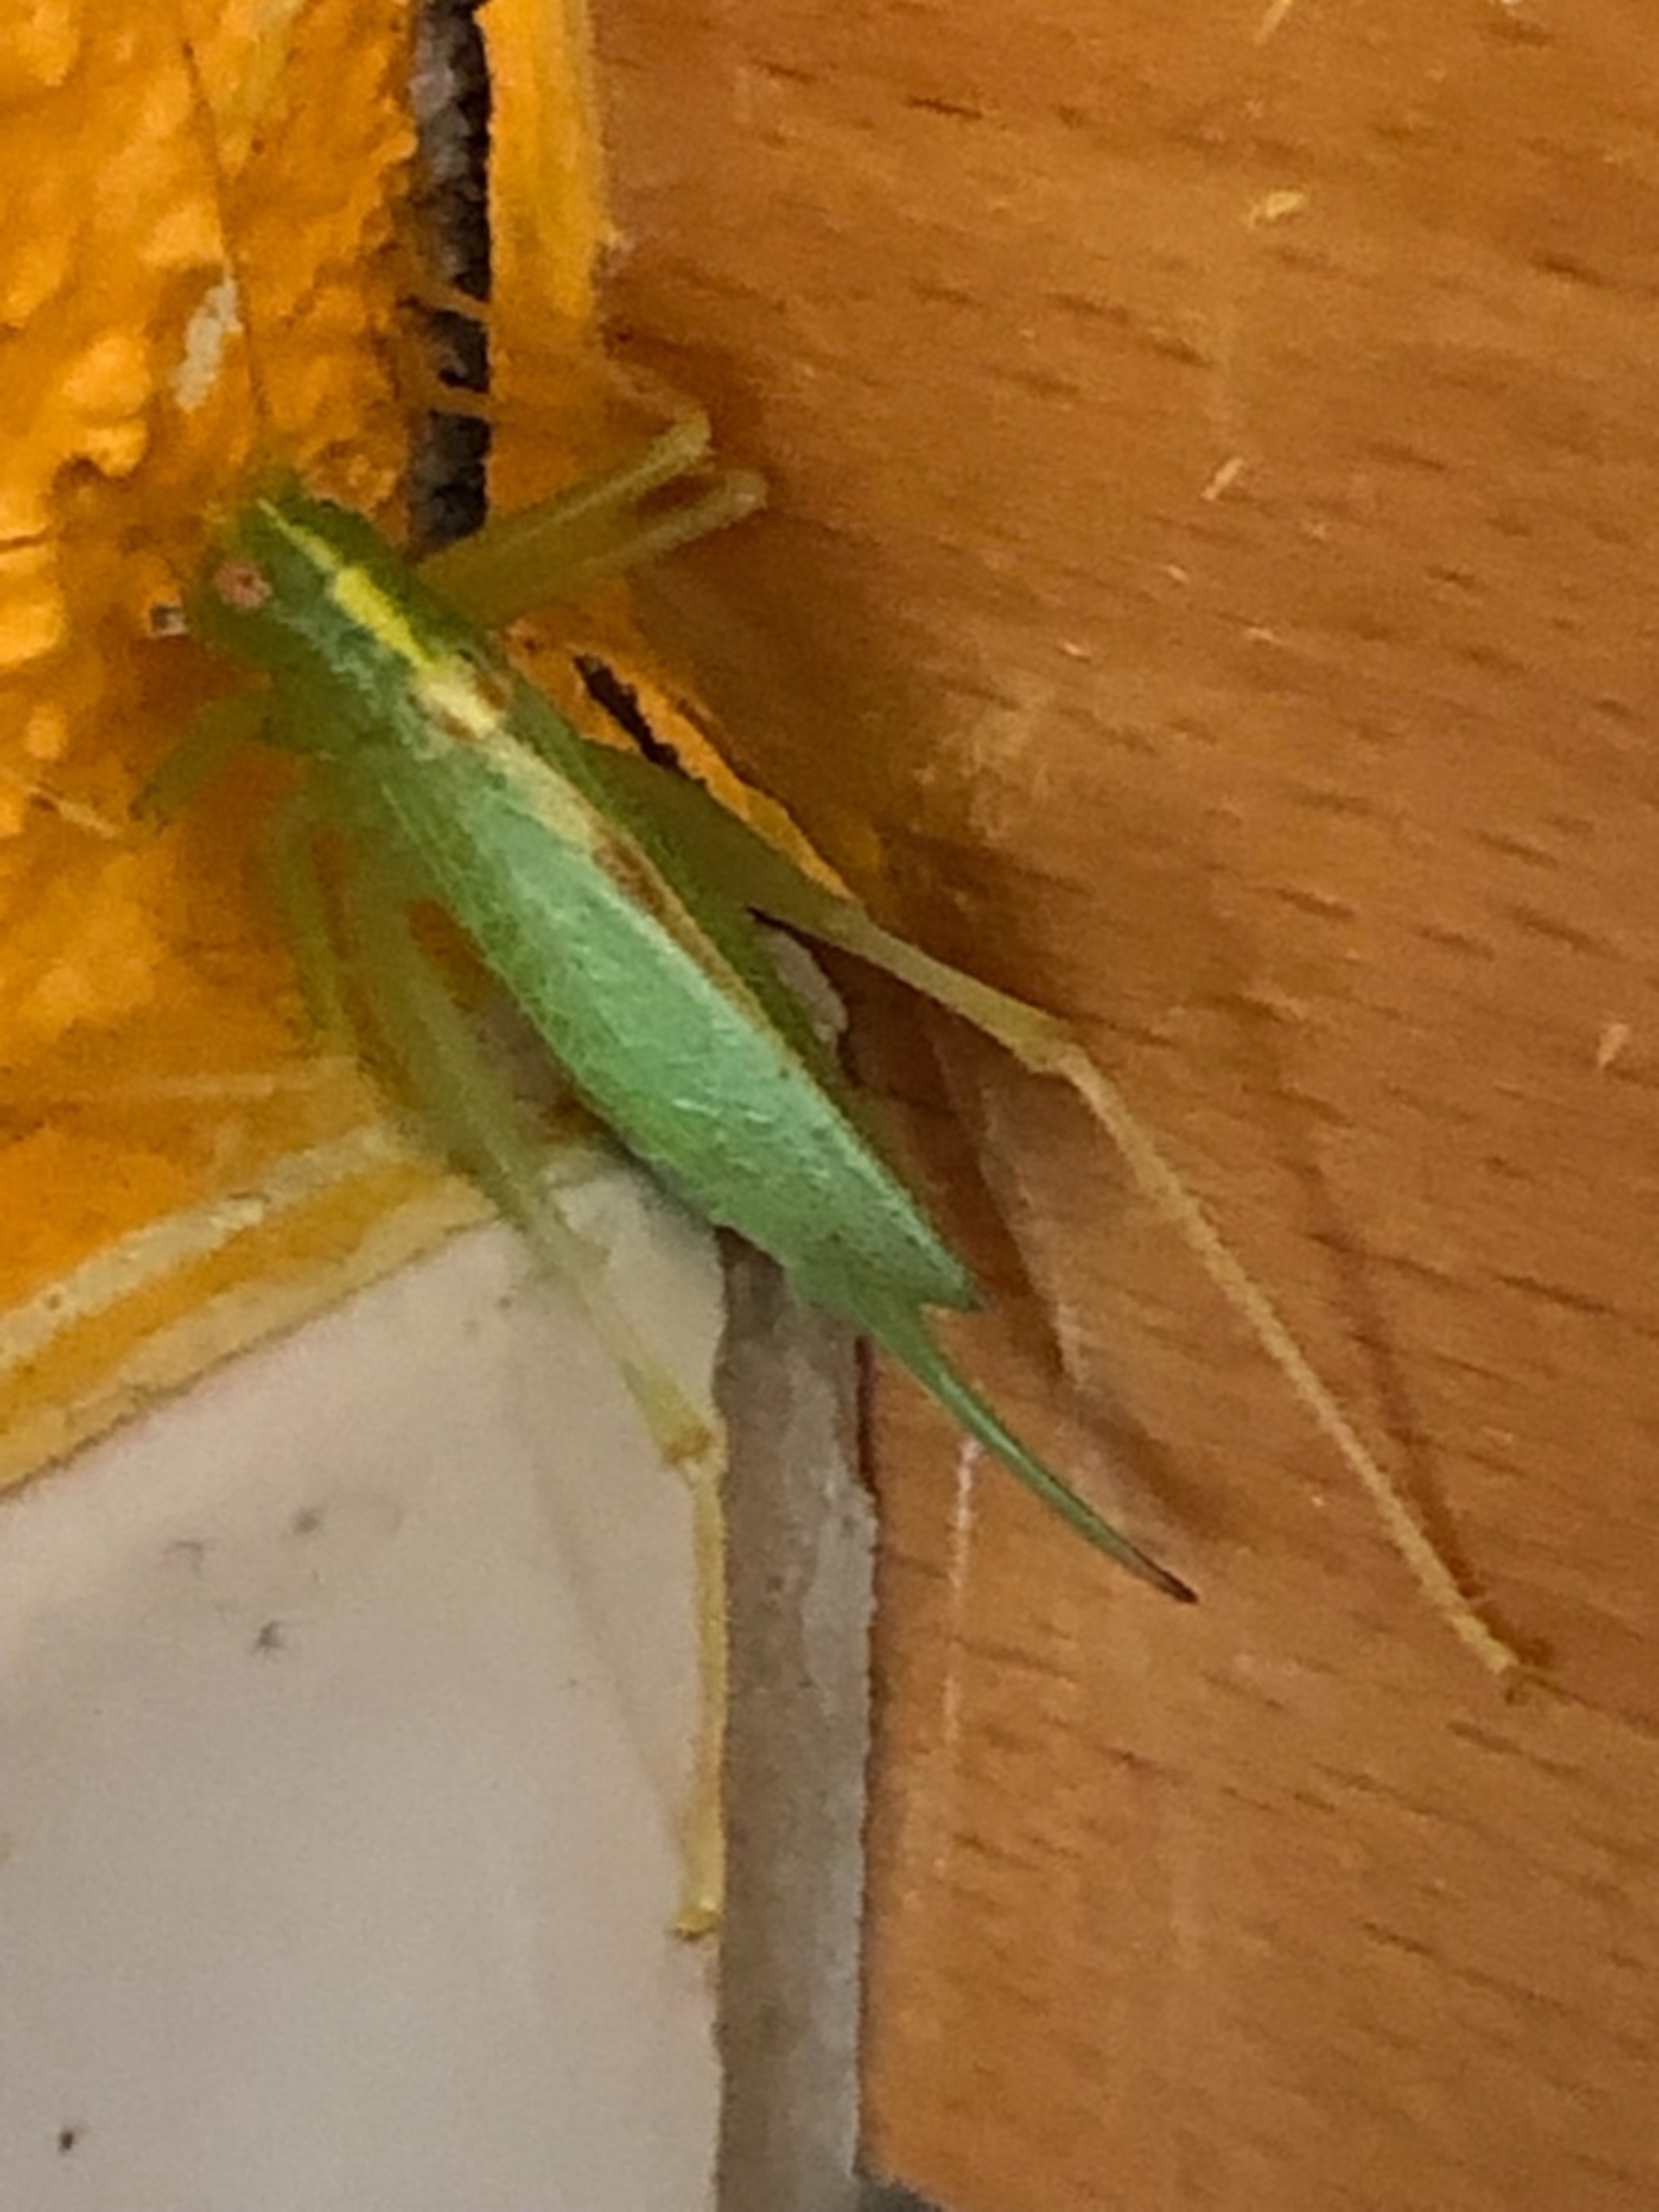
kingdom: Animalia
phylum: Arthropoda
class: Insecta
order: Orthoptera
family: Tettigoniidae
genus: Meconema
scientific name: Meconema thalassinum
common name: Egegræshoppe
